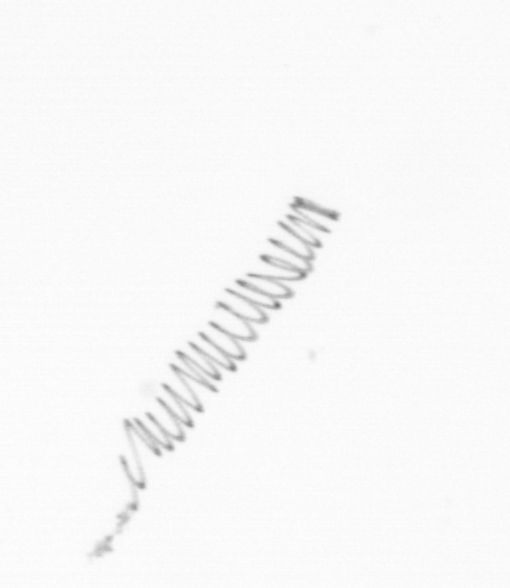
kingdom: Chromista
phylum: Ochrophyta
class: Bacillariophyceae
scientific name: Bacillariophyceae
